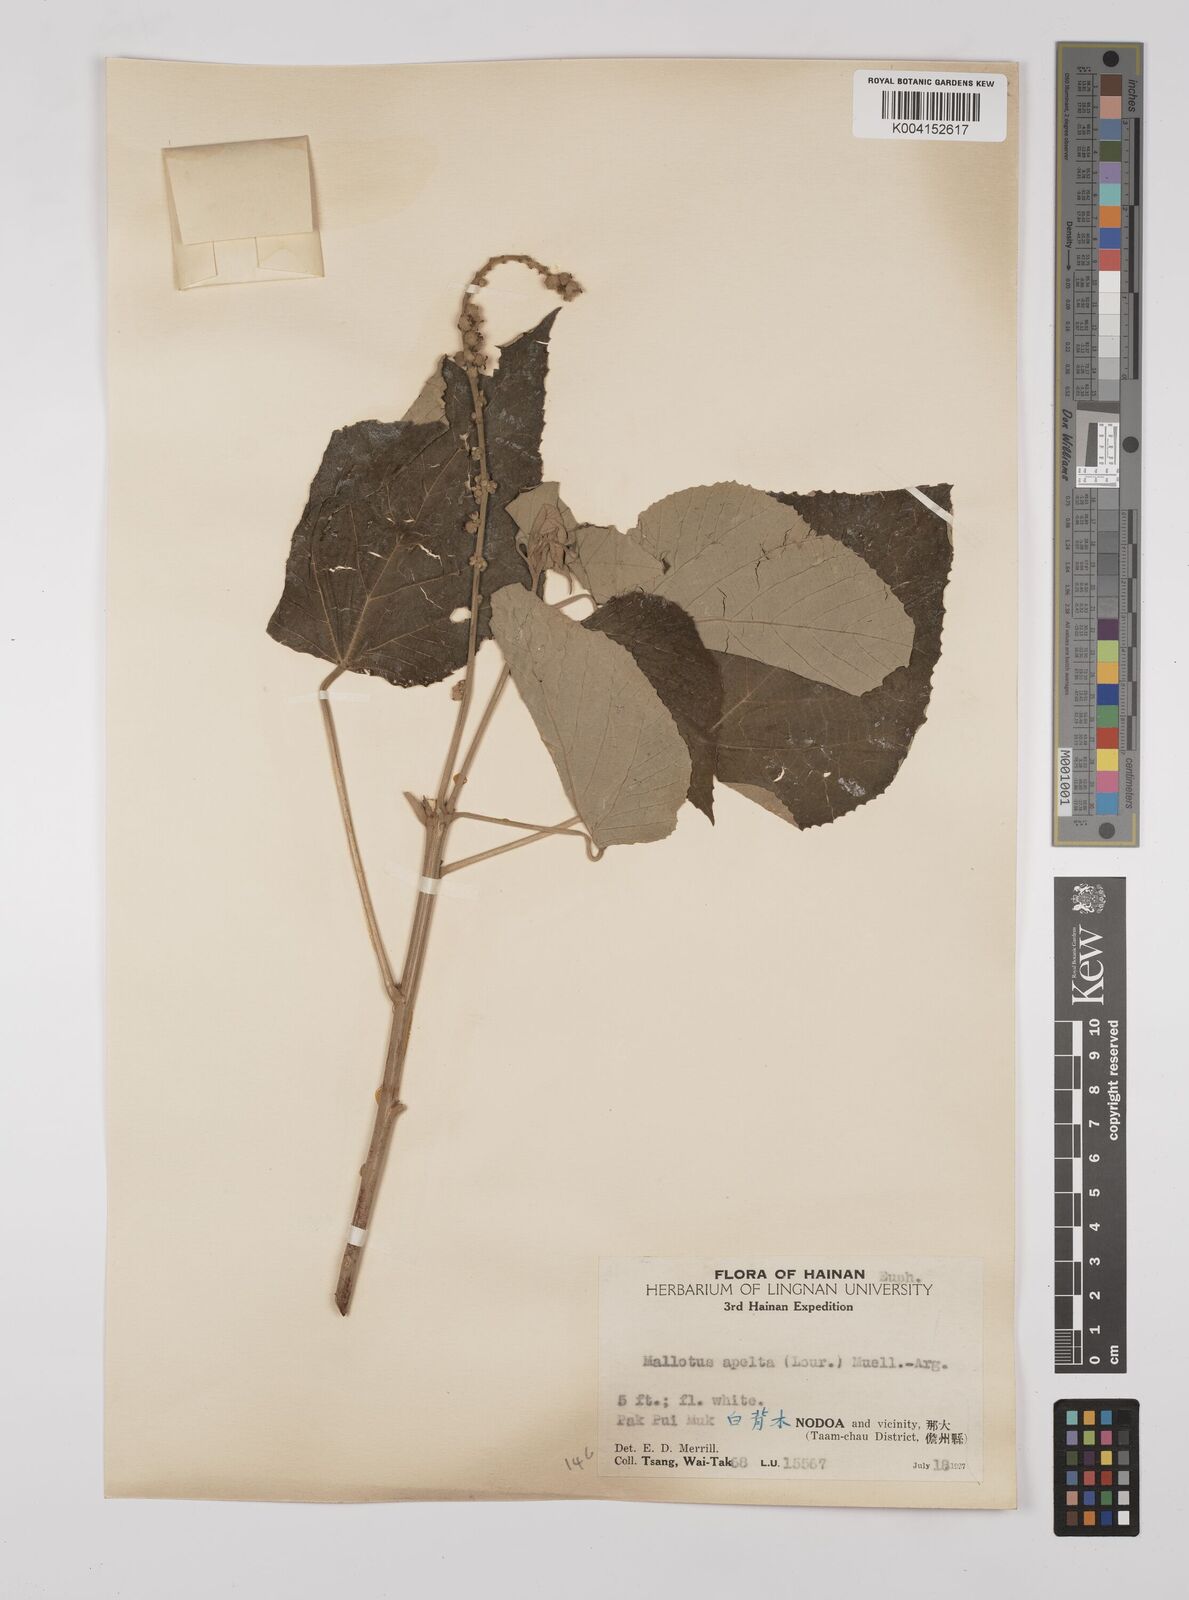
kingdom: Plantae
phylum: Tracheophyta
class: Magnoliopsida
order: Malpighiales
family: Euphorbiaceae
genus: Mallotus
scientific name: Mallotus apelta
